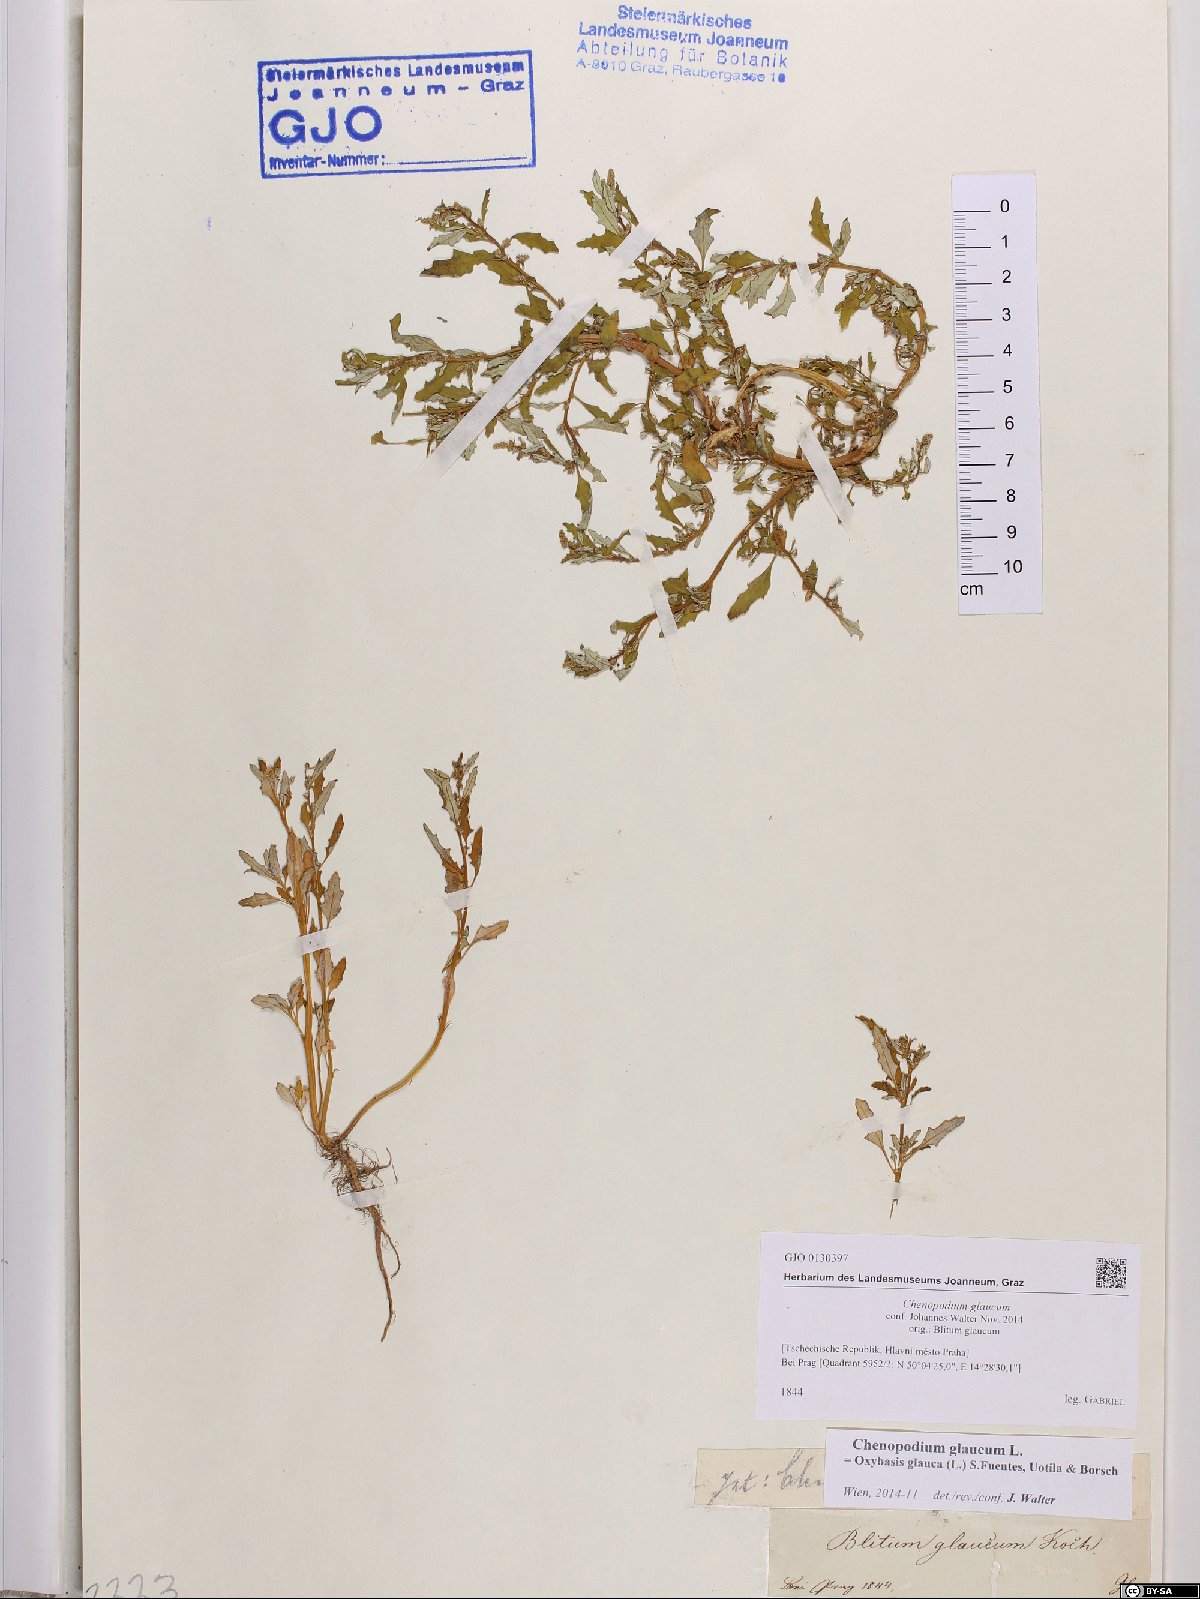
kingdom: Plantae
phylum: Tracheophyta
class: Magnoliopsida
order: Caryophyllales
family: Amaranthaceae
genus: Oxybasis
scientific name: Oxybasis glauca
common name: Glaucous goosefoot
